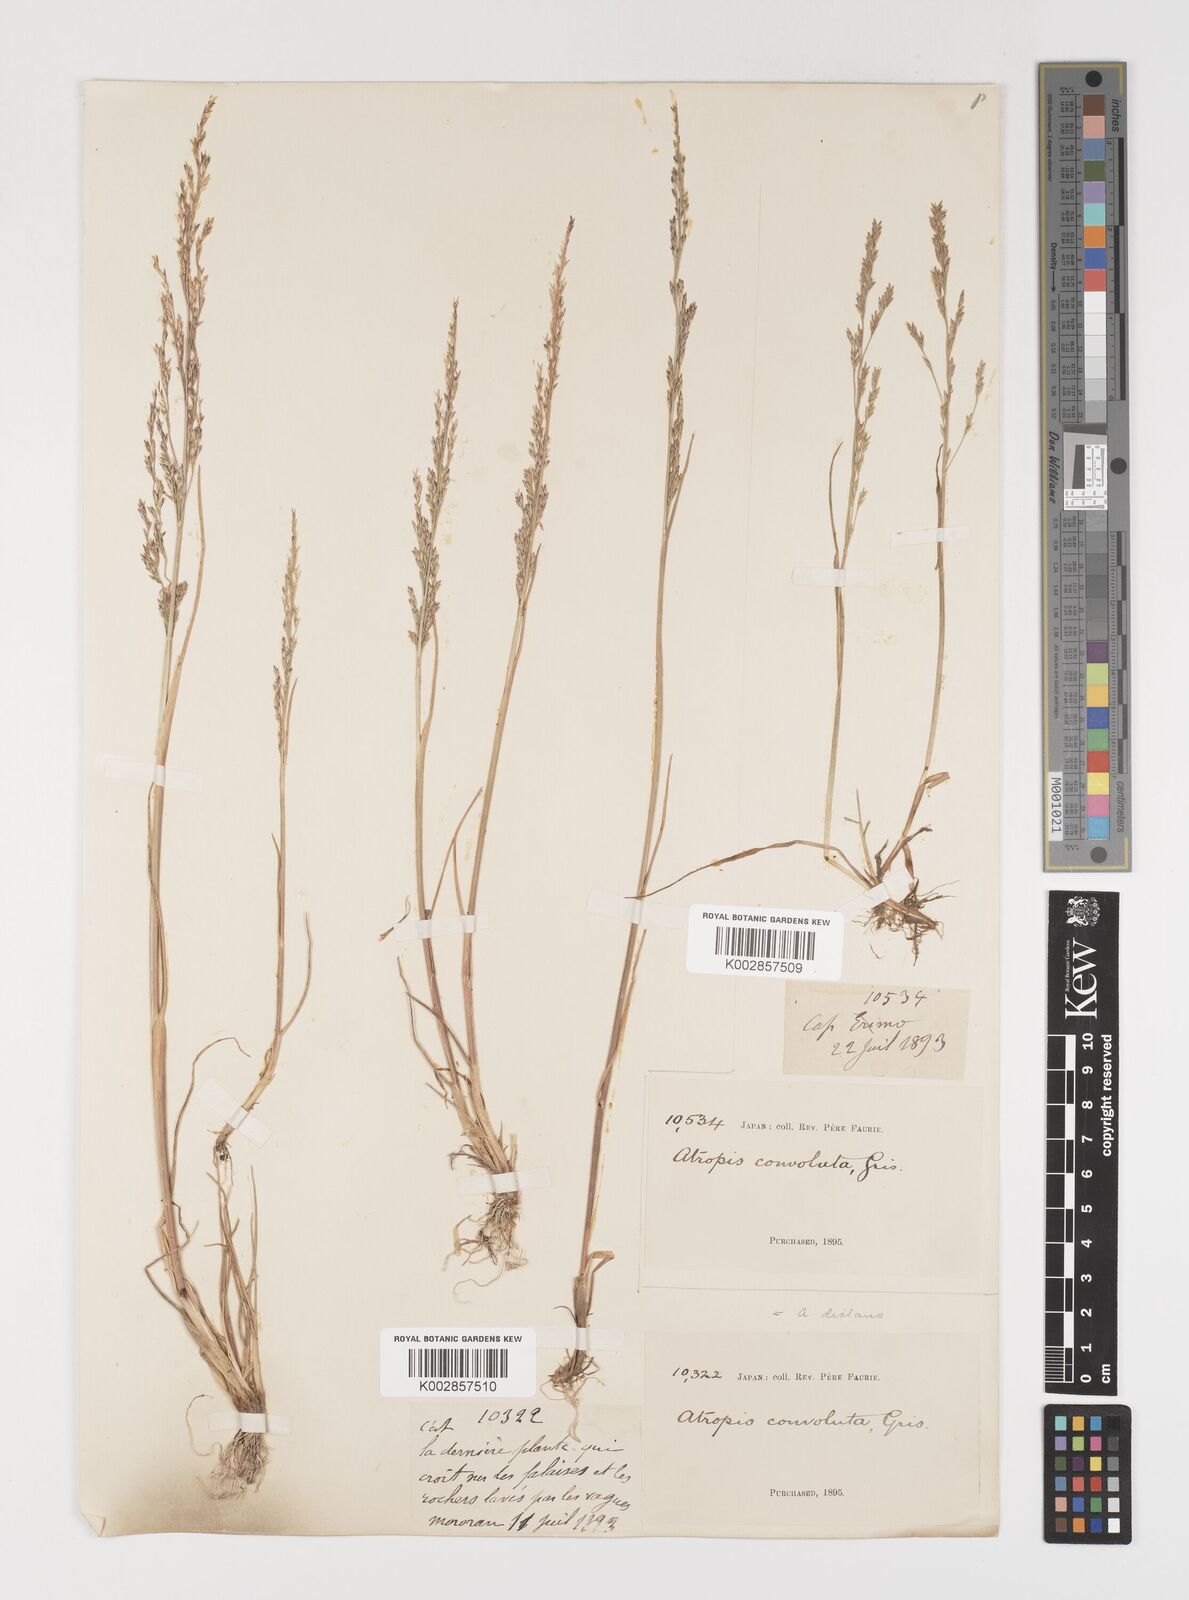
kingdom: Plantae
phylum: Tracheophyta
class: Liliopsida
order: Poales
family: Poaceae
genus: Puccinellia
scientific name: Puccinellia
